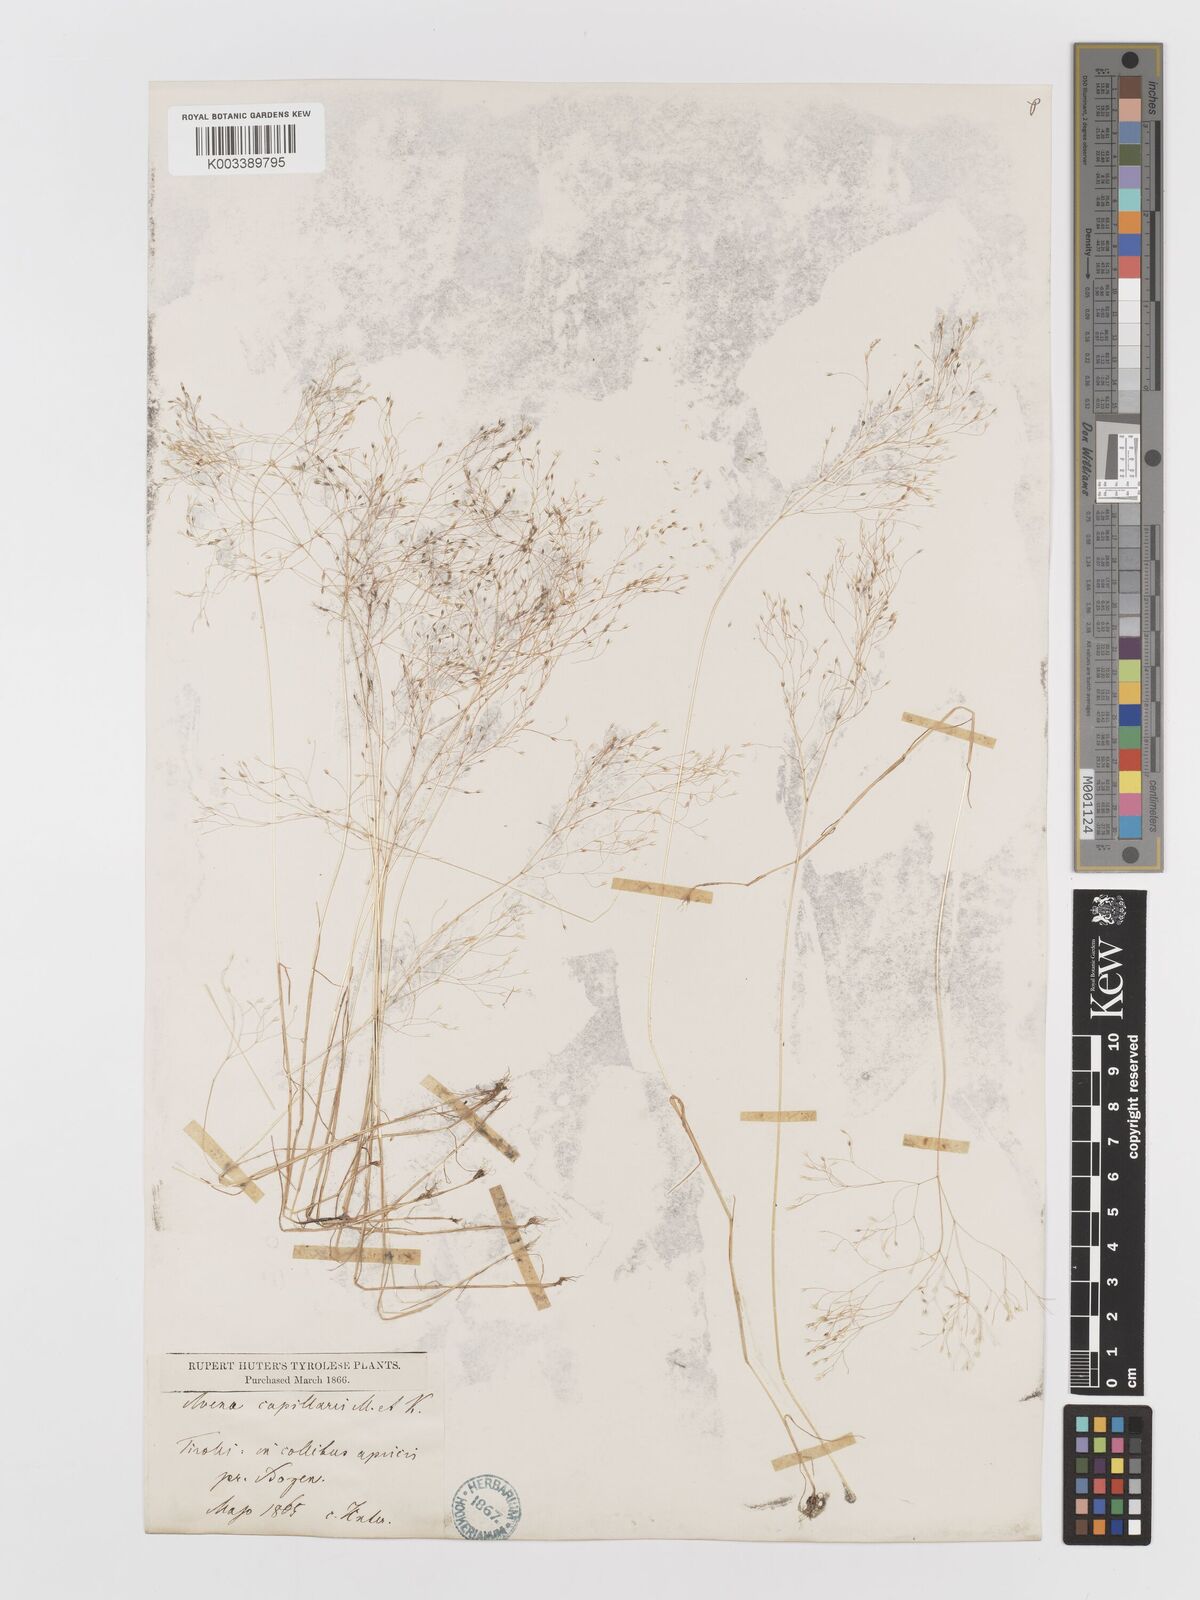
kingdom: Plantae
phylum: Tracheophyta
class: Liliopsida
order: Poales
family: Poaceae
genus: Aira
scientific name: Aira elegans
